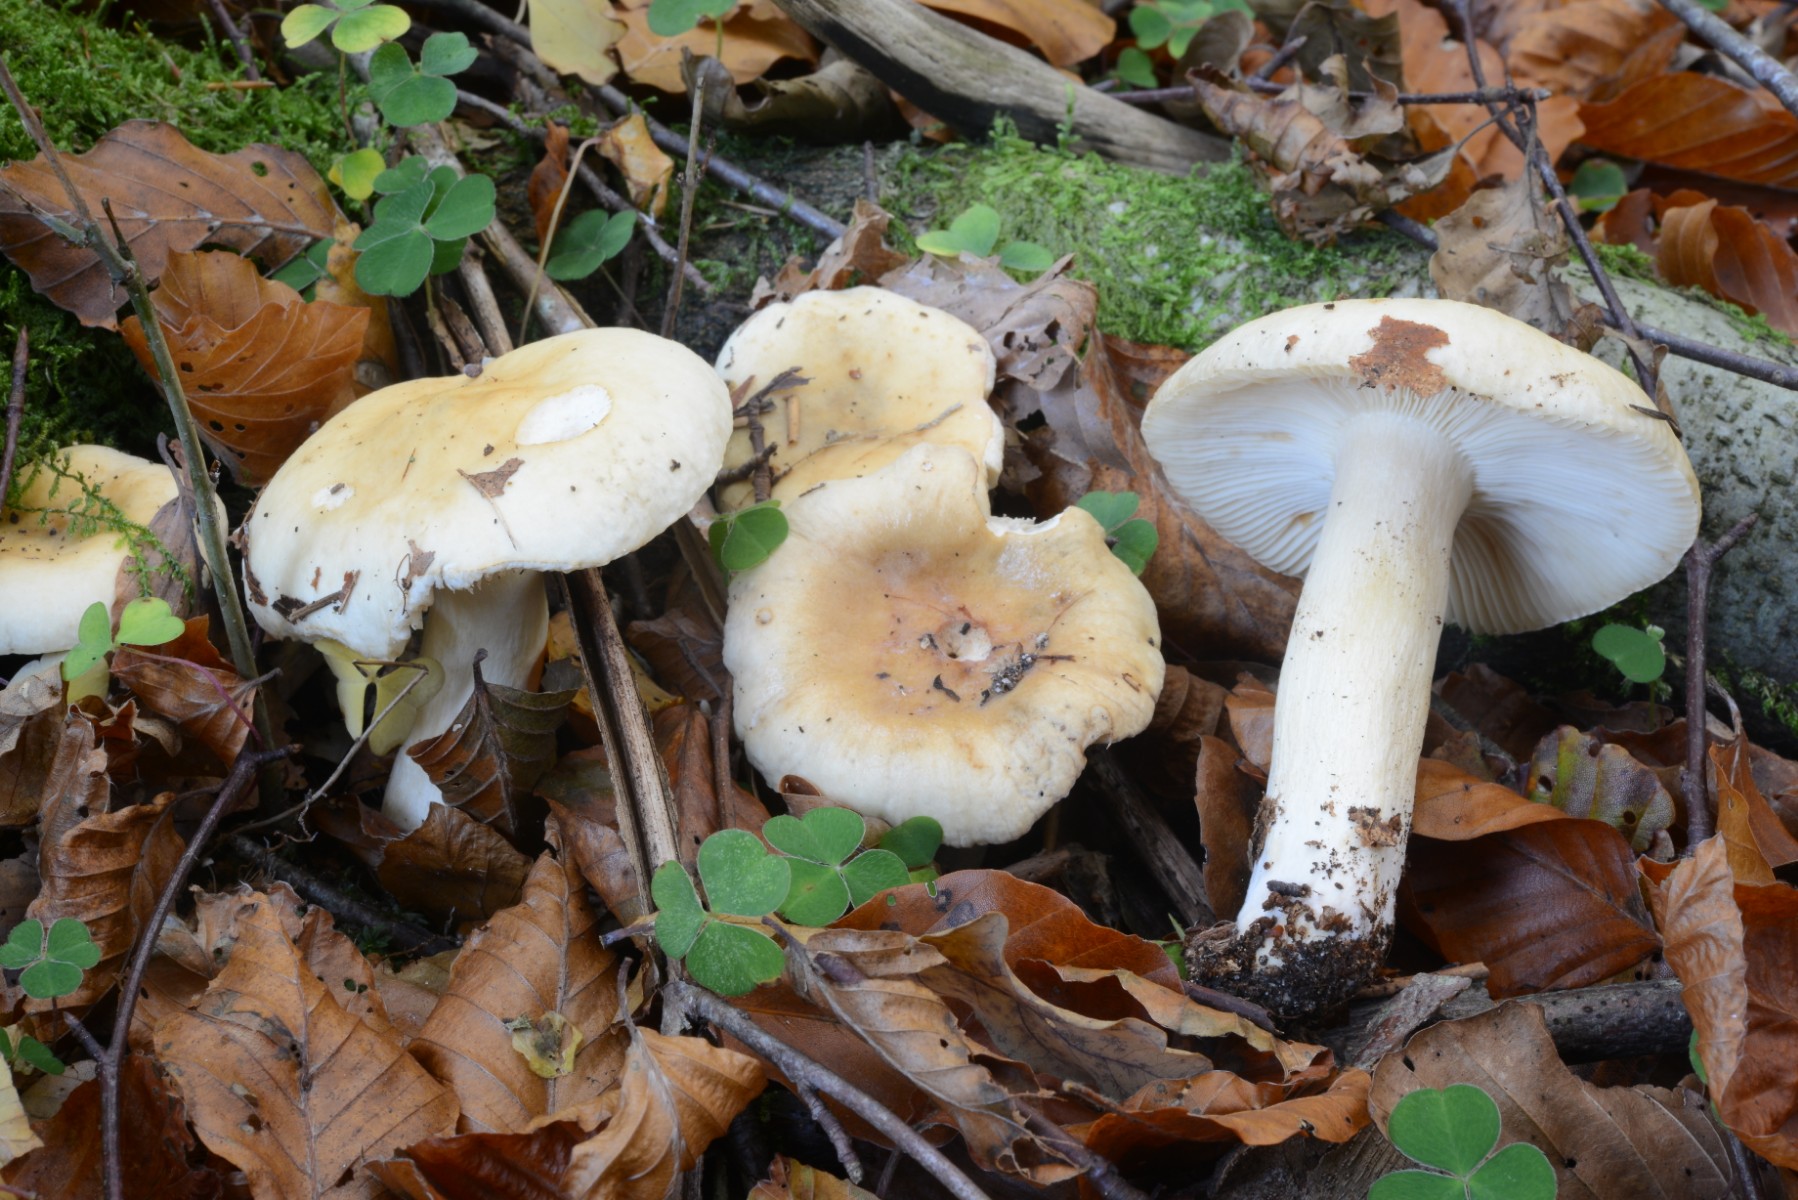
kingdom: Fungi
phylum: Basidiomycota
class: Agaricomycetes
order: Russulales
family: Russulaceae
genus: Russula
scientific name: Russula ochroleuca
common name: okkergul skørhat
